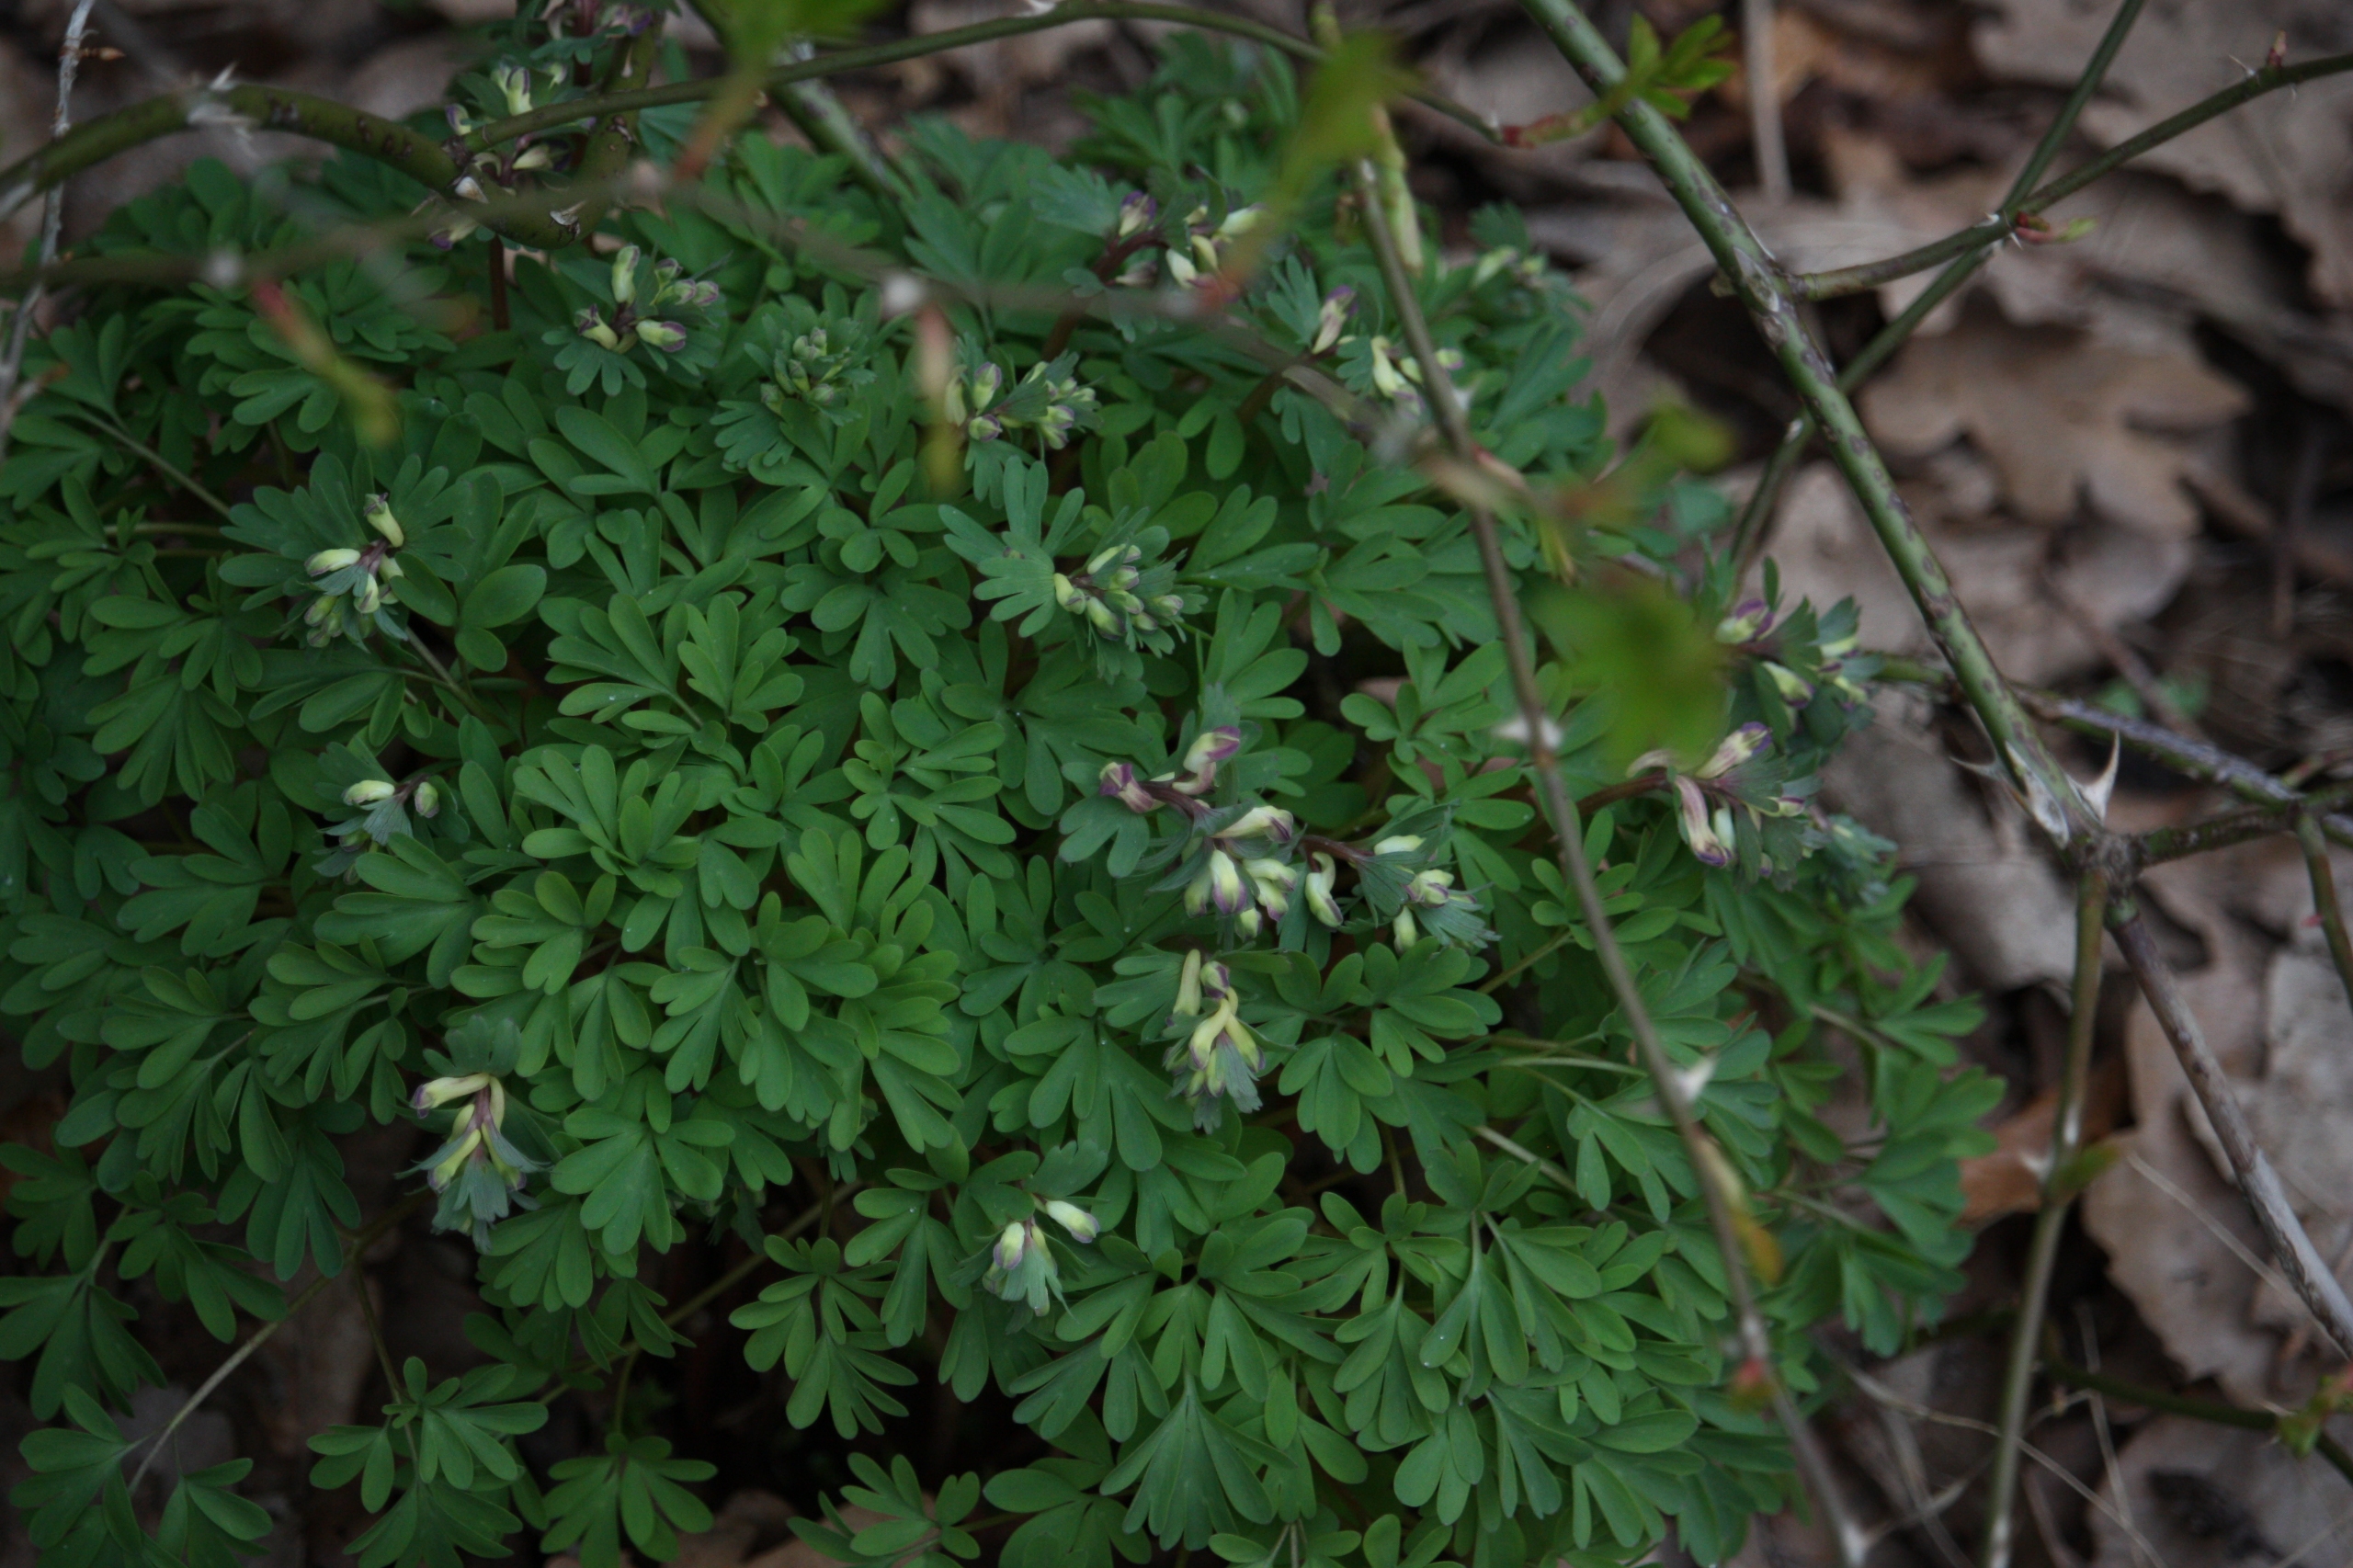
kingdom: Plantae
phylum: Tracheophyta
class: Magnoliopsida
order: Ranunculales
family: Papaveraceae
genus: Corydalis
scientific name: Corydalis solida
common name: Langstilket lærkespore
